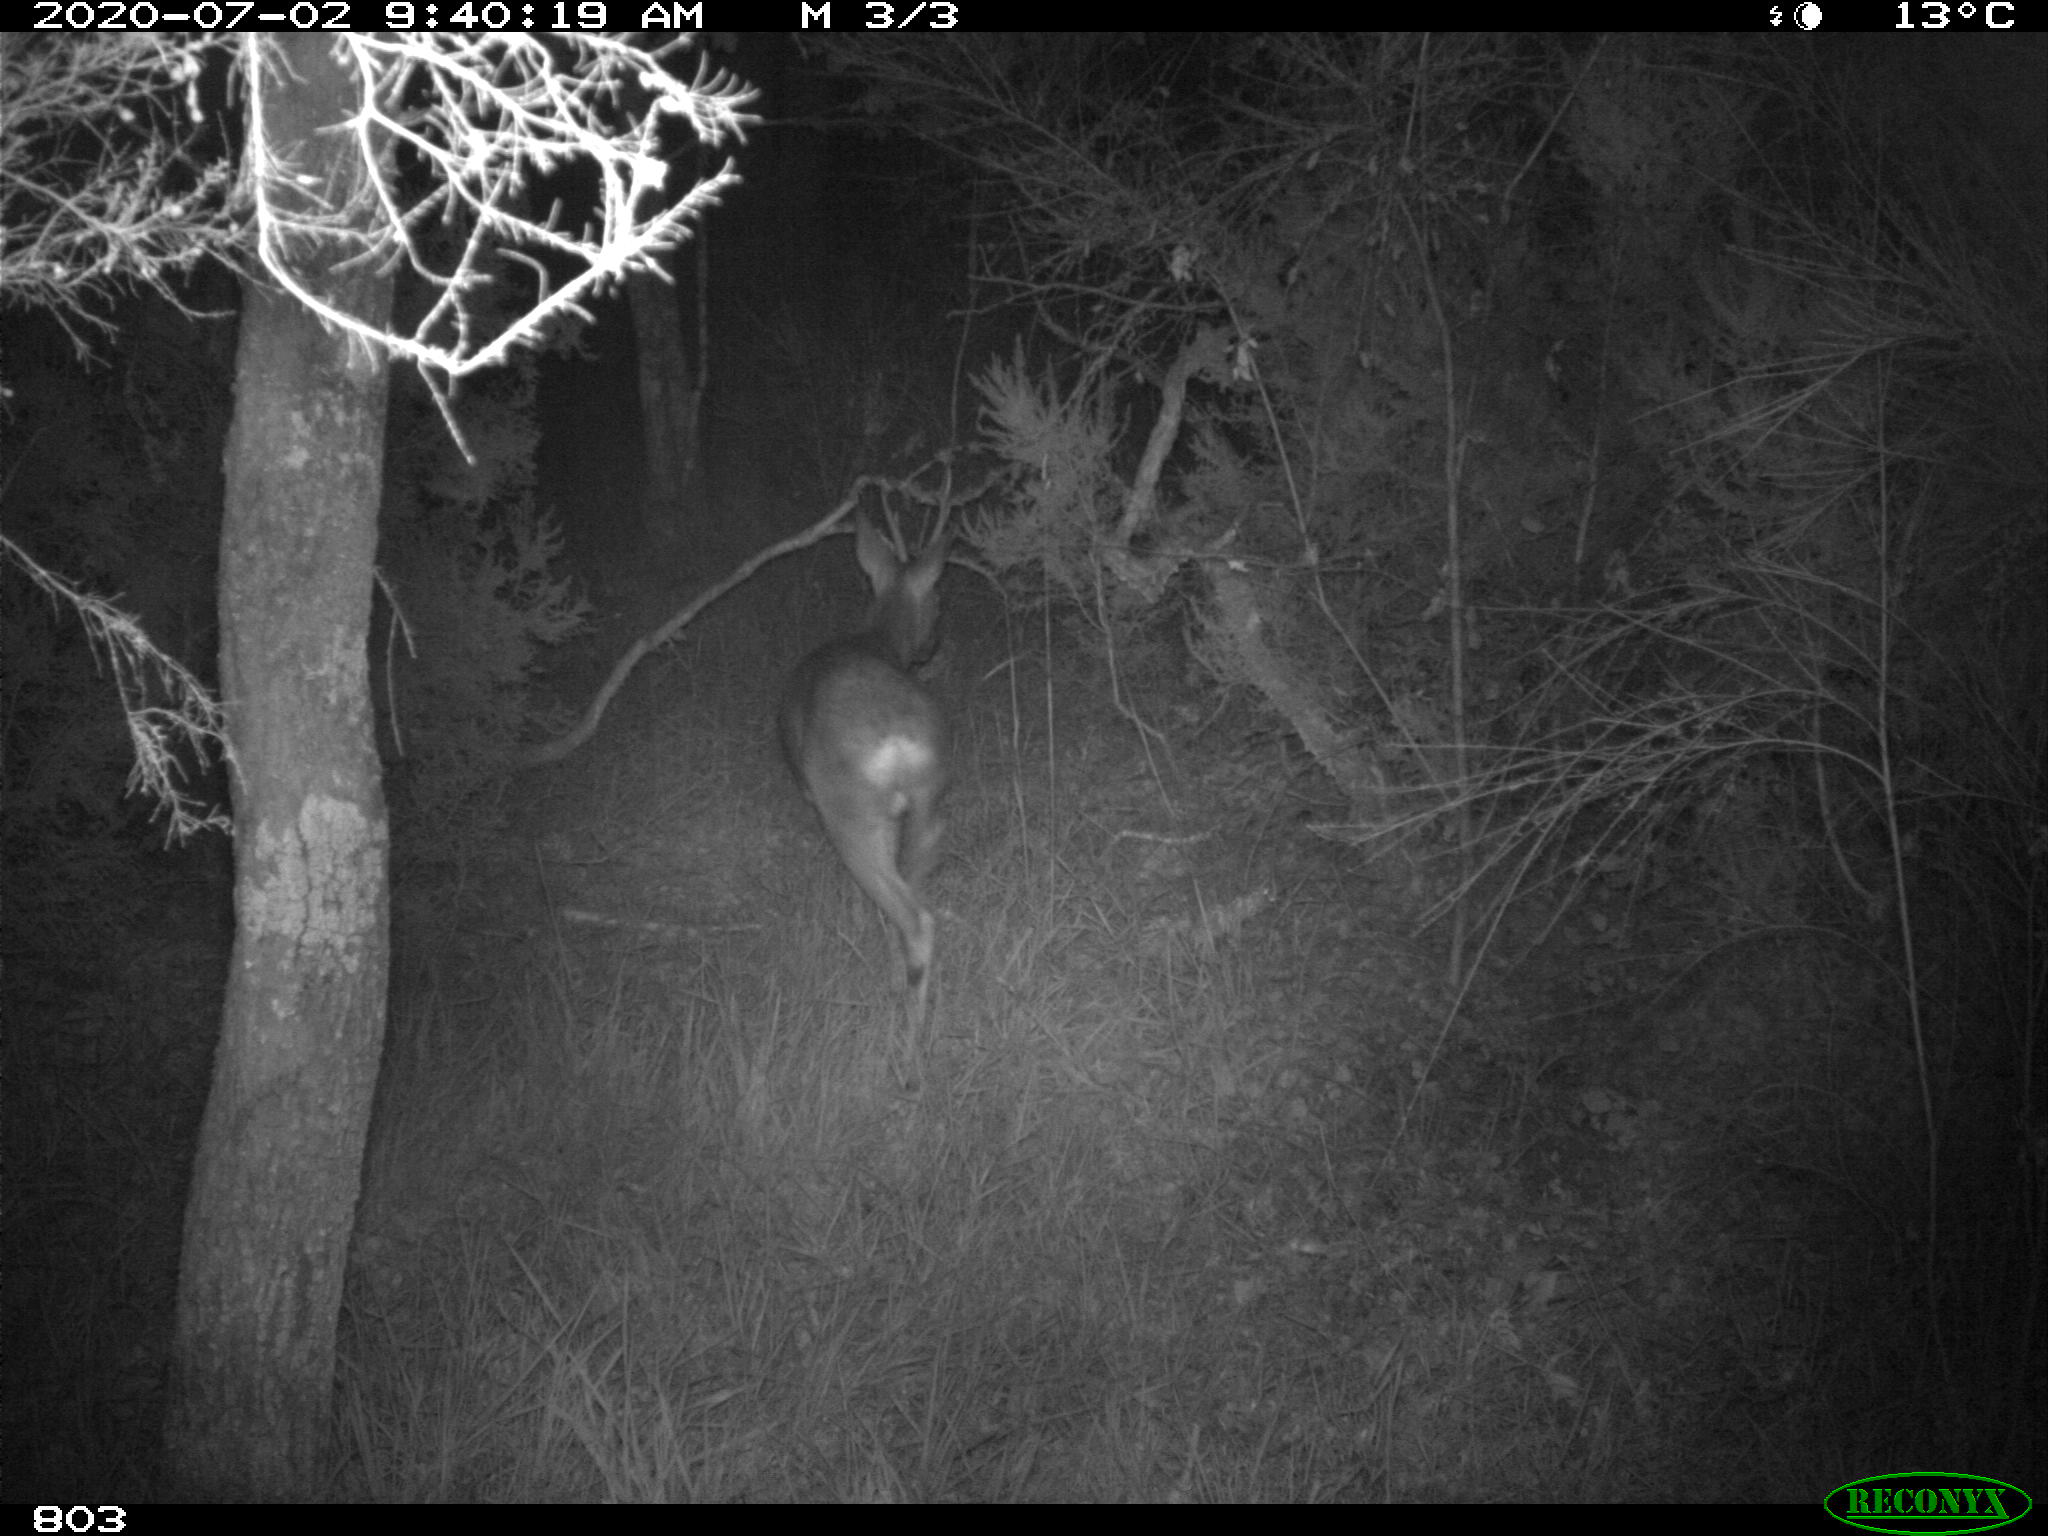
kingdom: Animalia
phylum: Chordata
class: Mammalia
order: Artiodactyla
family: Cervidae
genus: Capreolus
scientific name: Capreolus capreolus
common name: Western roe deer
